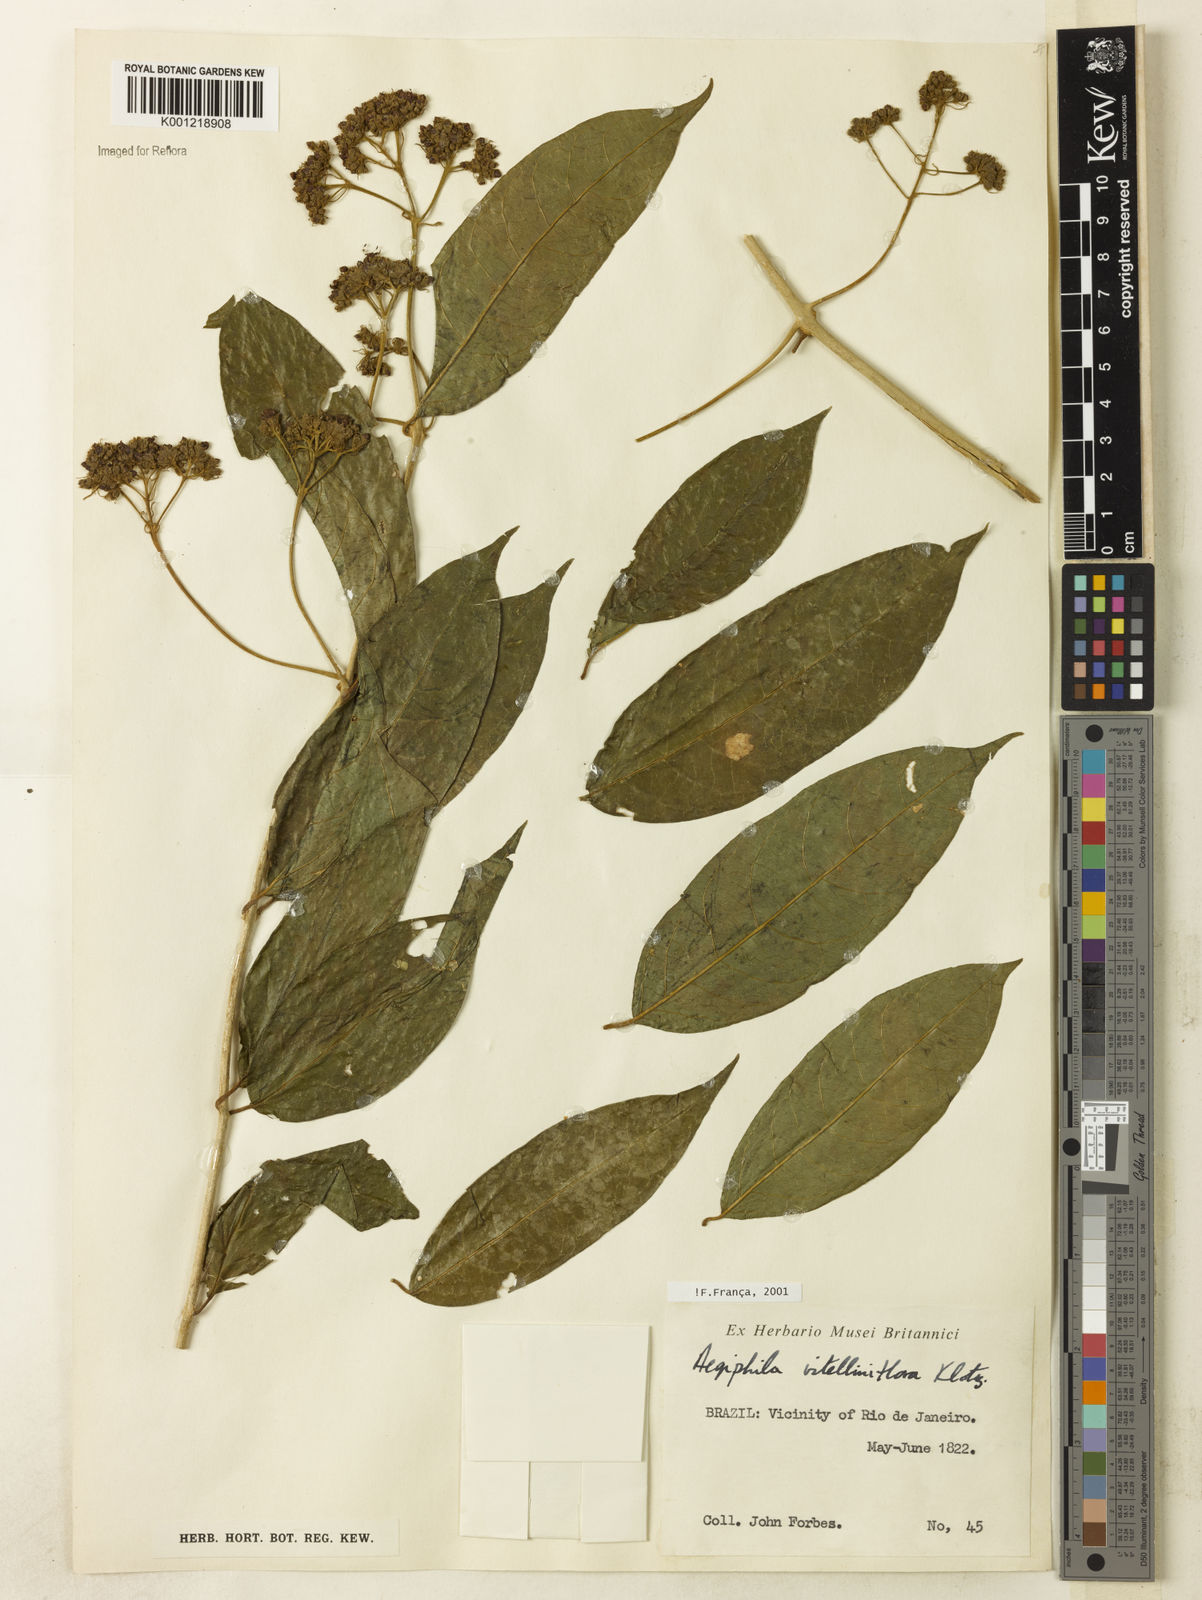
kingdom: Plantae
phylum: Tracheophyta
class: Magnoliopsida
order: Lamiales
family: Lamiaceae
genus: Aegiphila
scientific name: Aegiphila
